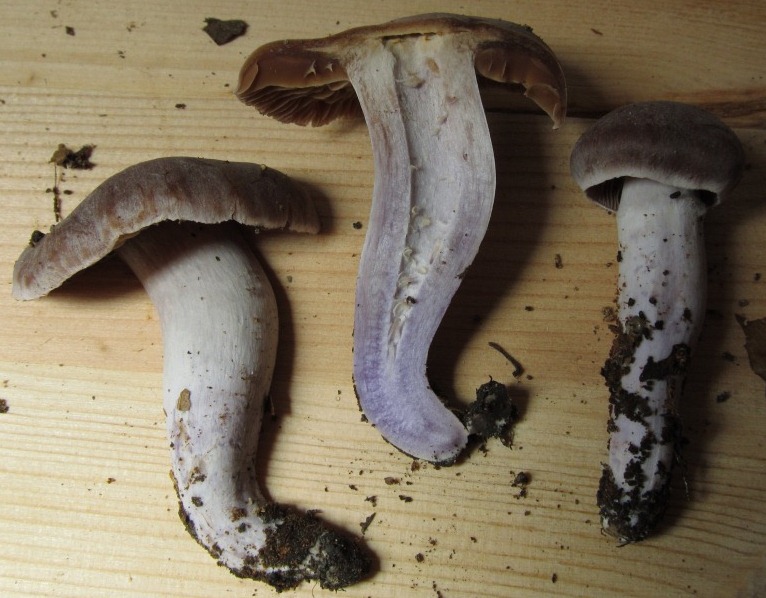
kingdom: Fungi
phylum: Basidiomycota
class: Agaricomycetes
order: Agaricales
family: Cortinariaceae
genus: Cortinarius
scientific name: Cortinarius cagei
